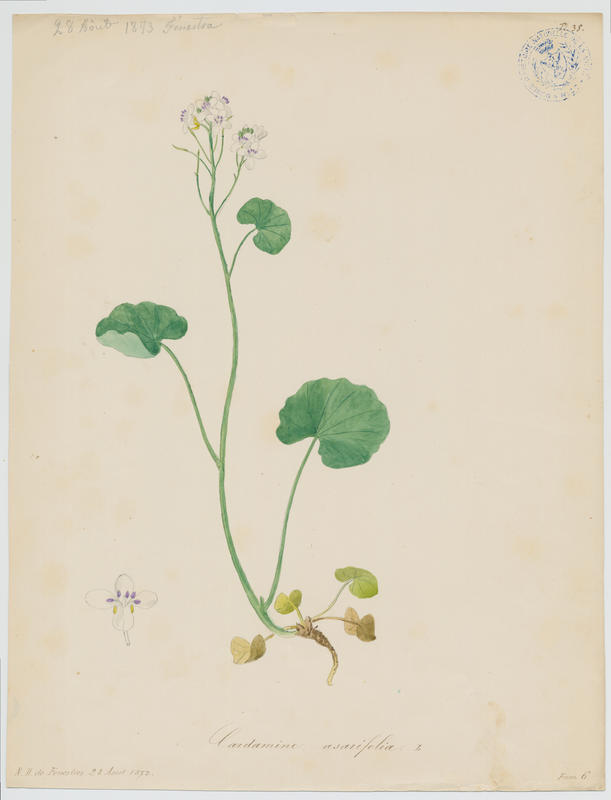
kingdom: Plantae
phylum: Tracheophyta
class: Magnoliopsida
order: Brassicales
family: Brassicaceae
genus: Cardamine
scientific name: Cardamine asarifolia
